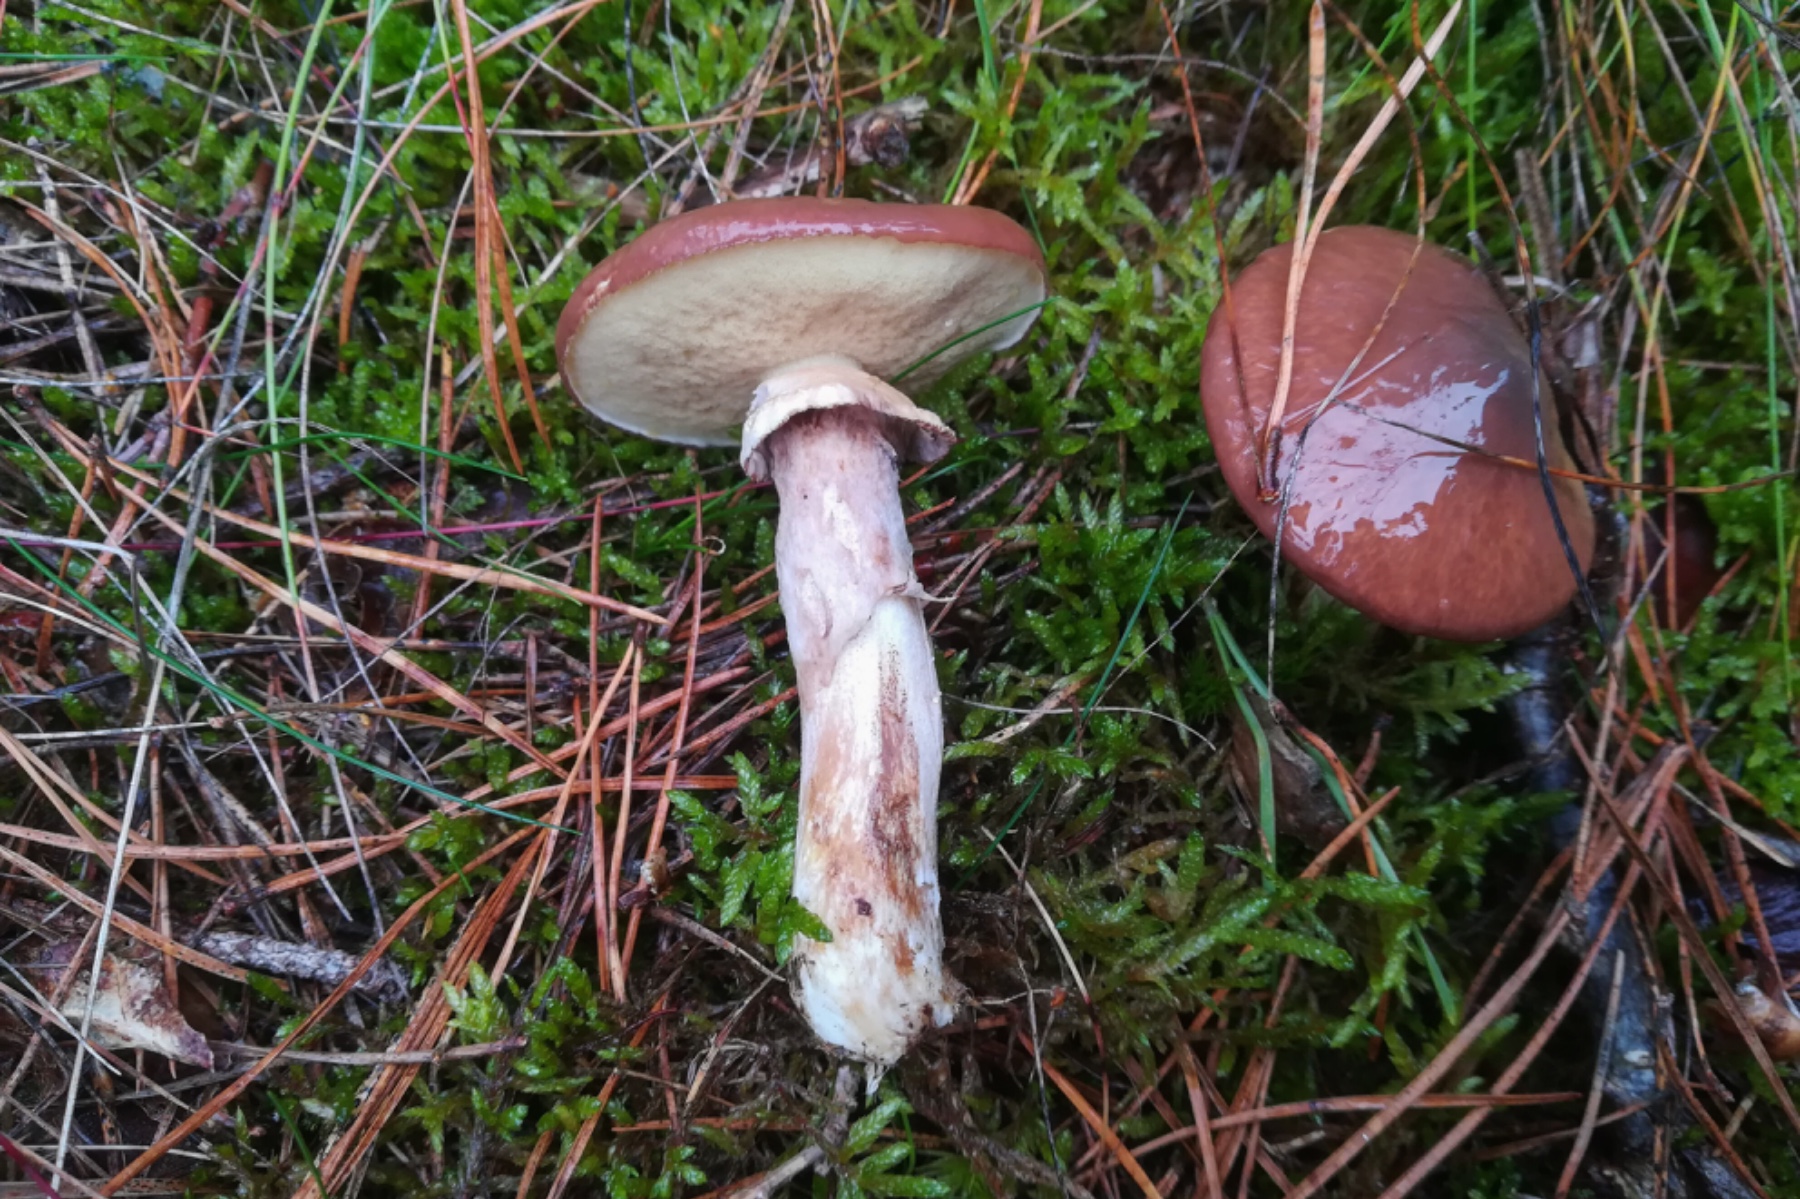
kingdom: Fungi
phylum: Basidiomycota
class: Agaricomycetes
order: Boletales
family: Suillaceae
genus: Suillus
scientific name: Suillus luteus
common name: brungul slimrørhat
